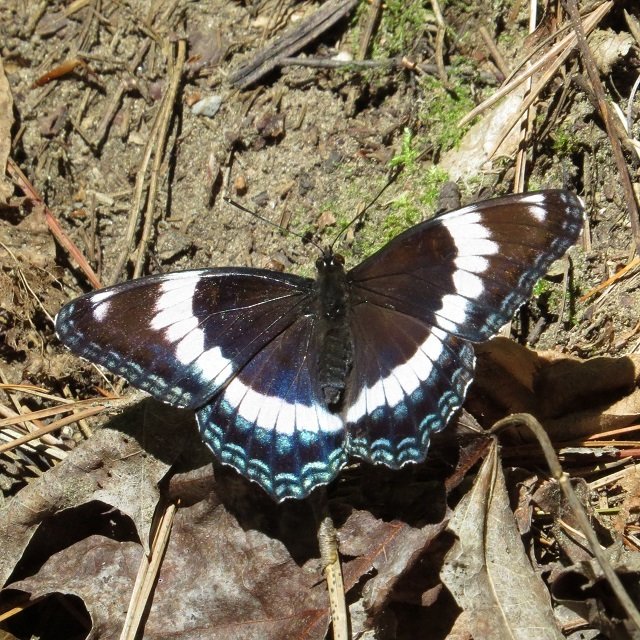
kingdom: Animalia
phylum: Arthropoda
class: Insecta
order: Lepidoptera
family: Nymphalidae
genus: Limenitis
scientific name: Limenitis arthemis
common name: Red-spotted Admiral
